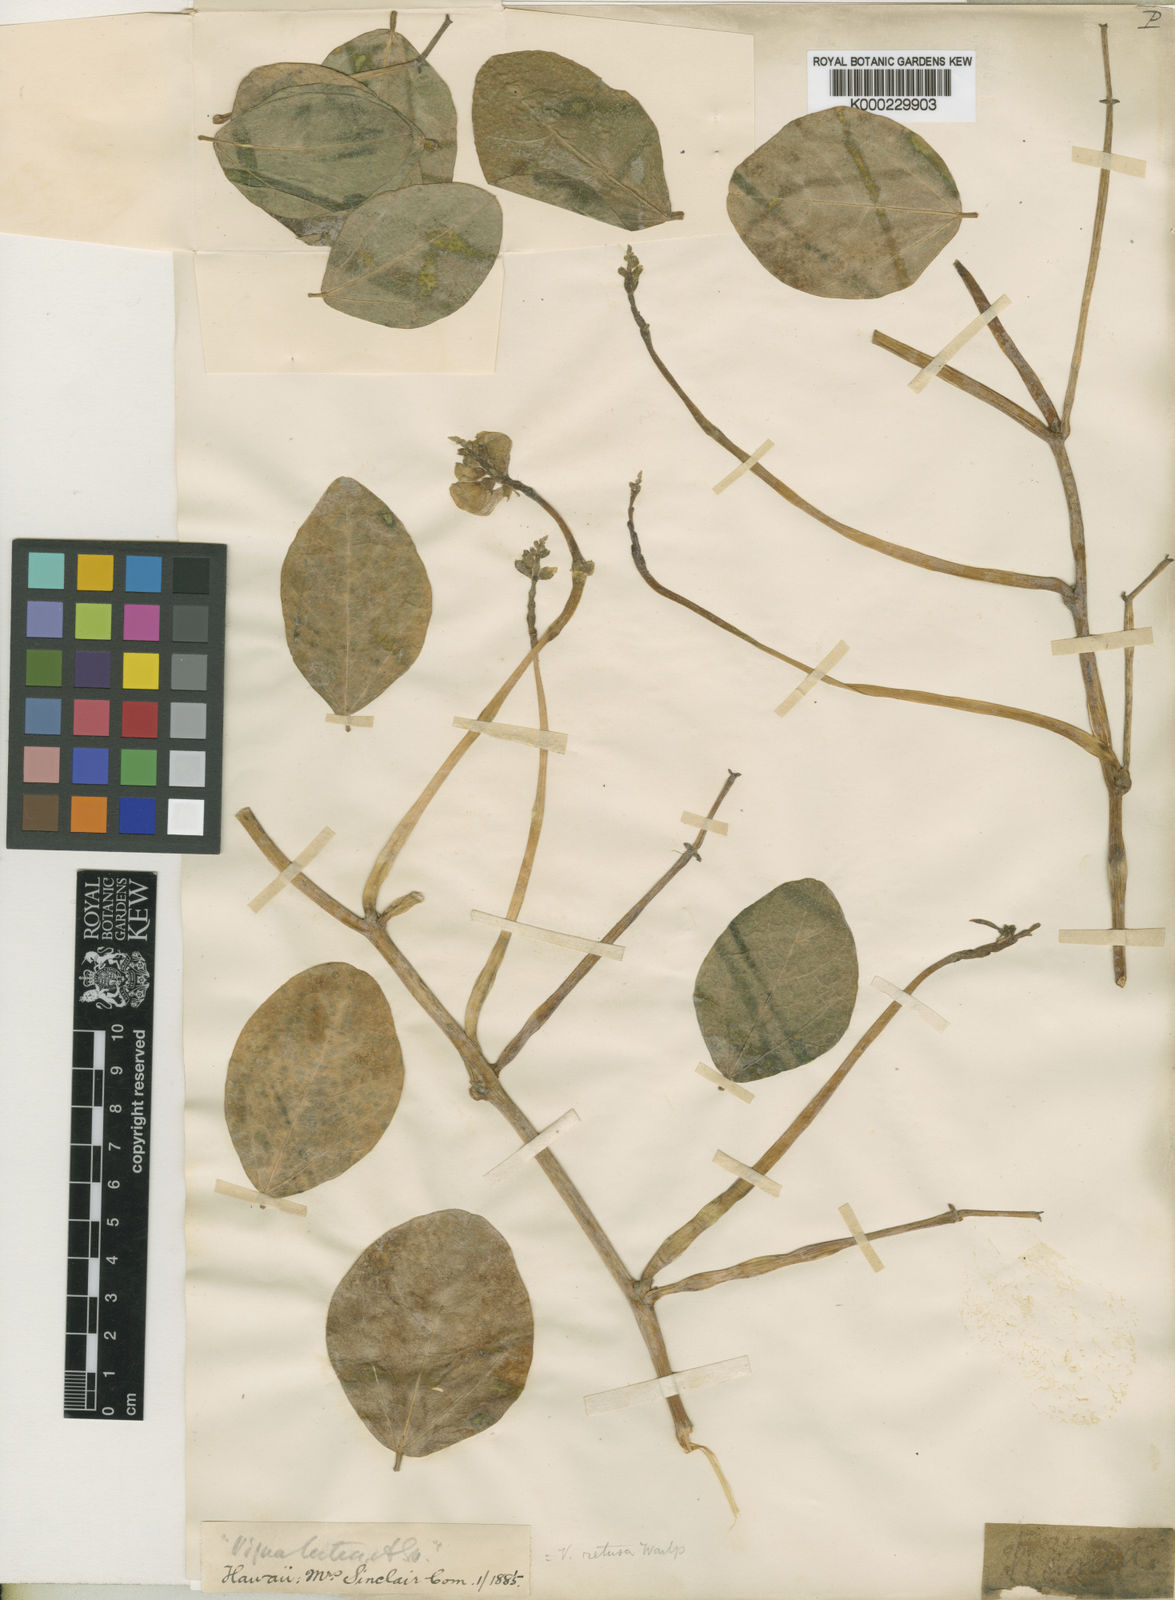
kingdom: Plantae
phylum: Tracheophyta
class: Magnoliopsida
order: Fabales
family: Fabaceae
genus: Vigna
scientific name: Vigna marina
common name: Dune-bean
